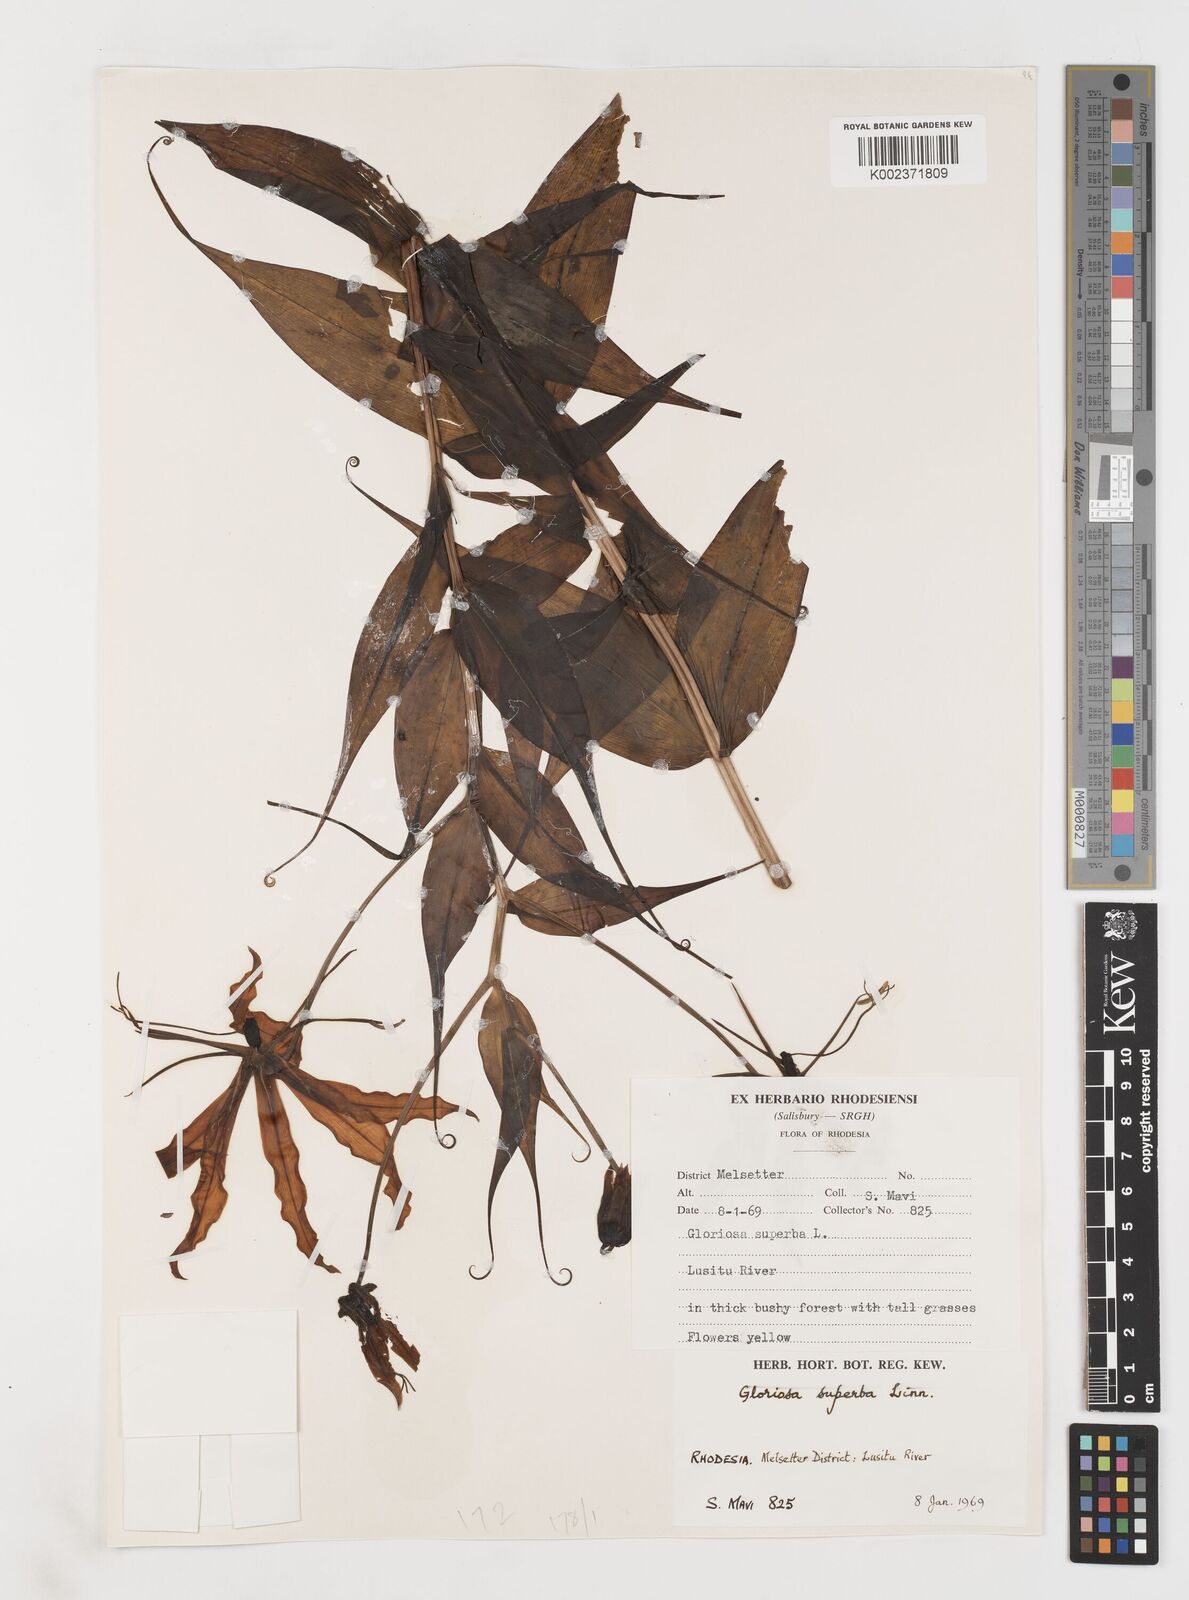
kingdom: Plantae
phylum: Tracheophyta
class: Liliopsida
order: Liliales
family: Colchicaceae
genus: Gloriosa
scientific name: Gloriosa simplex
